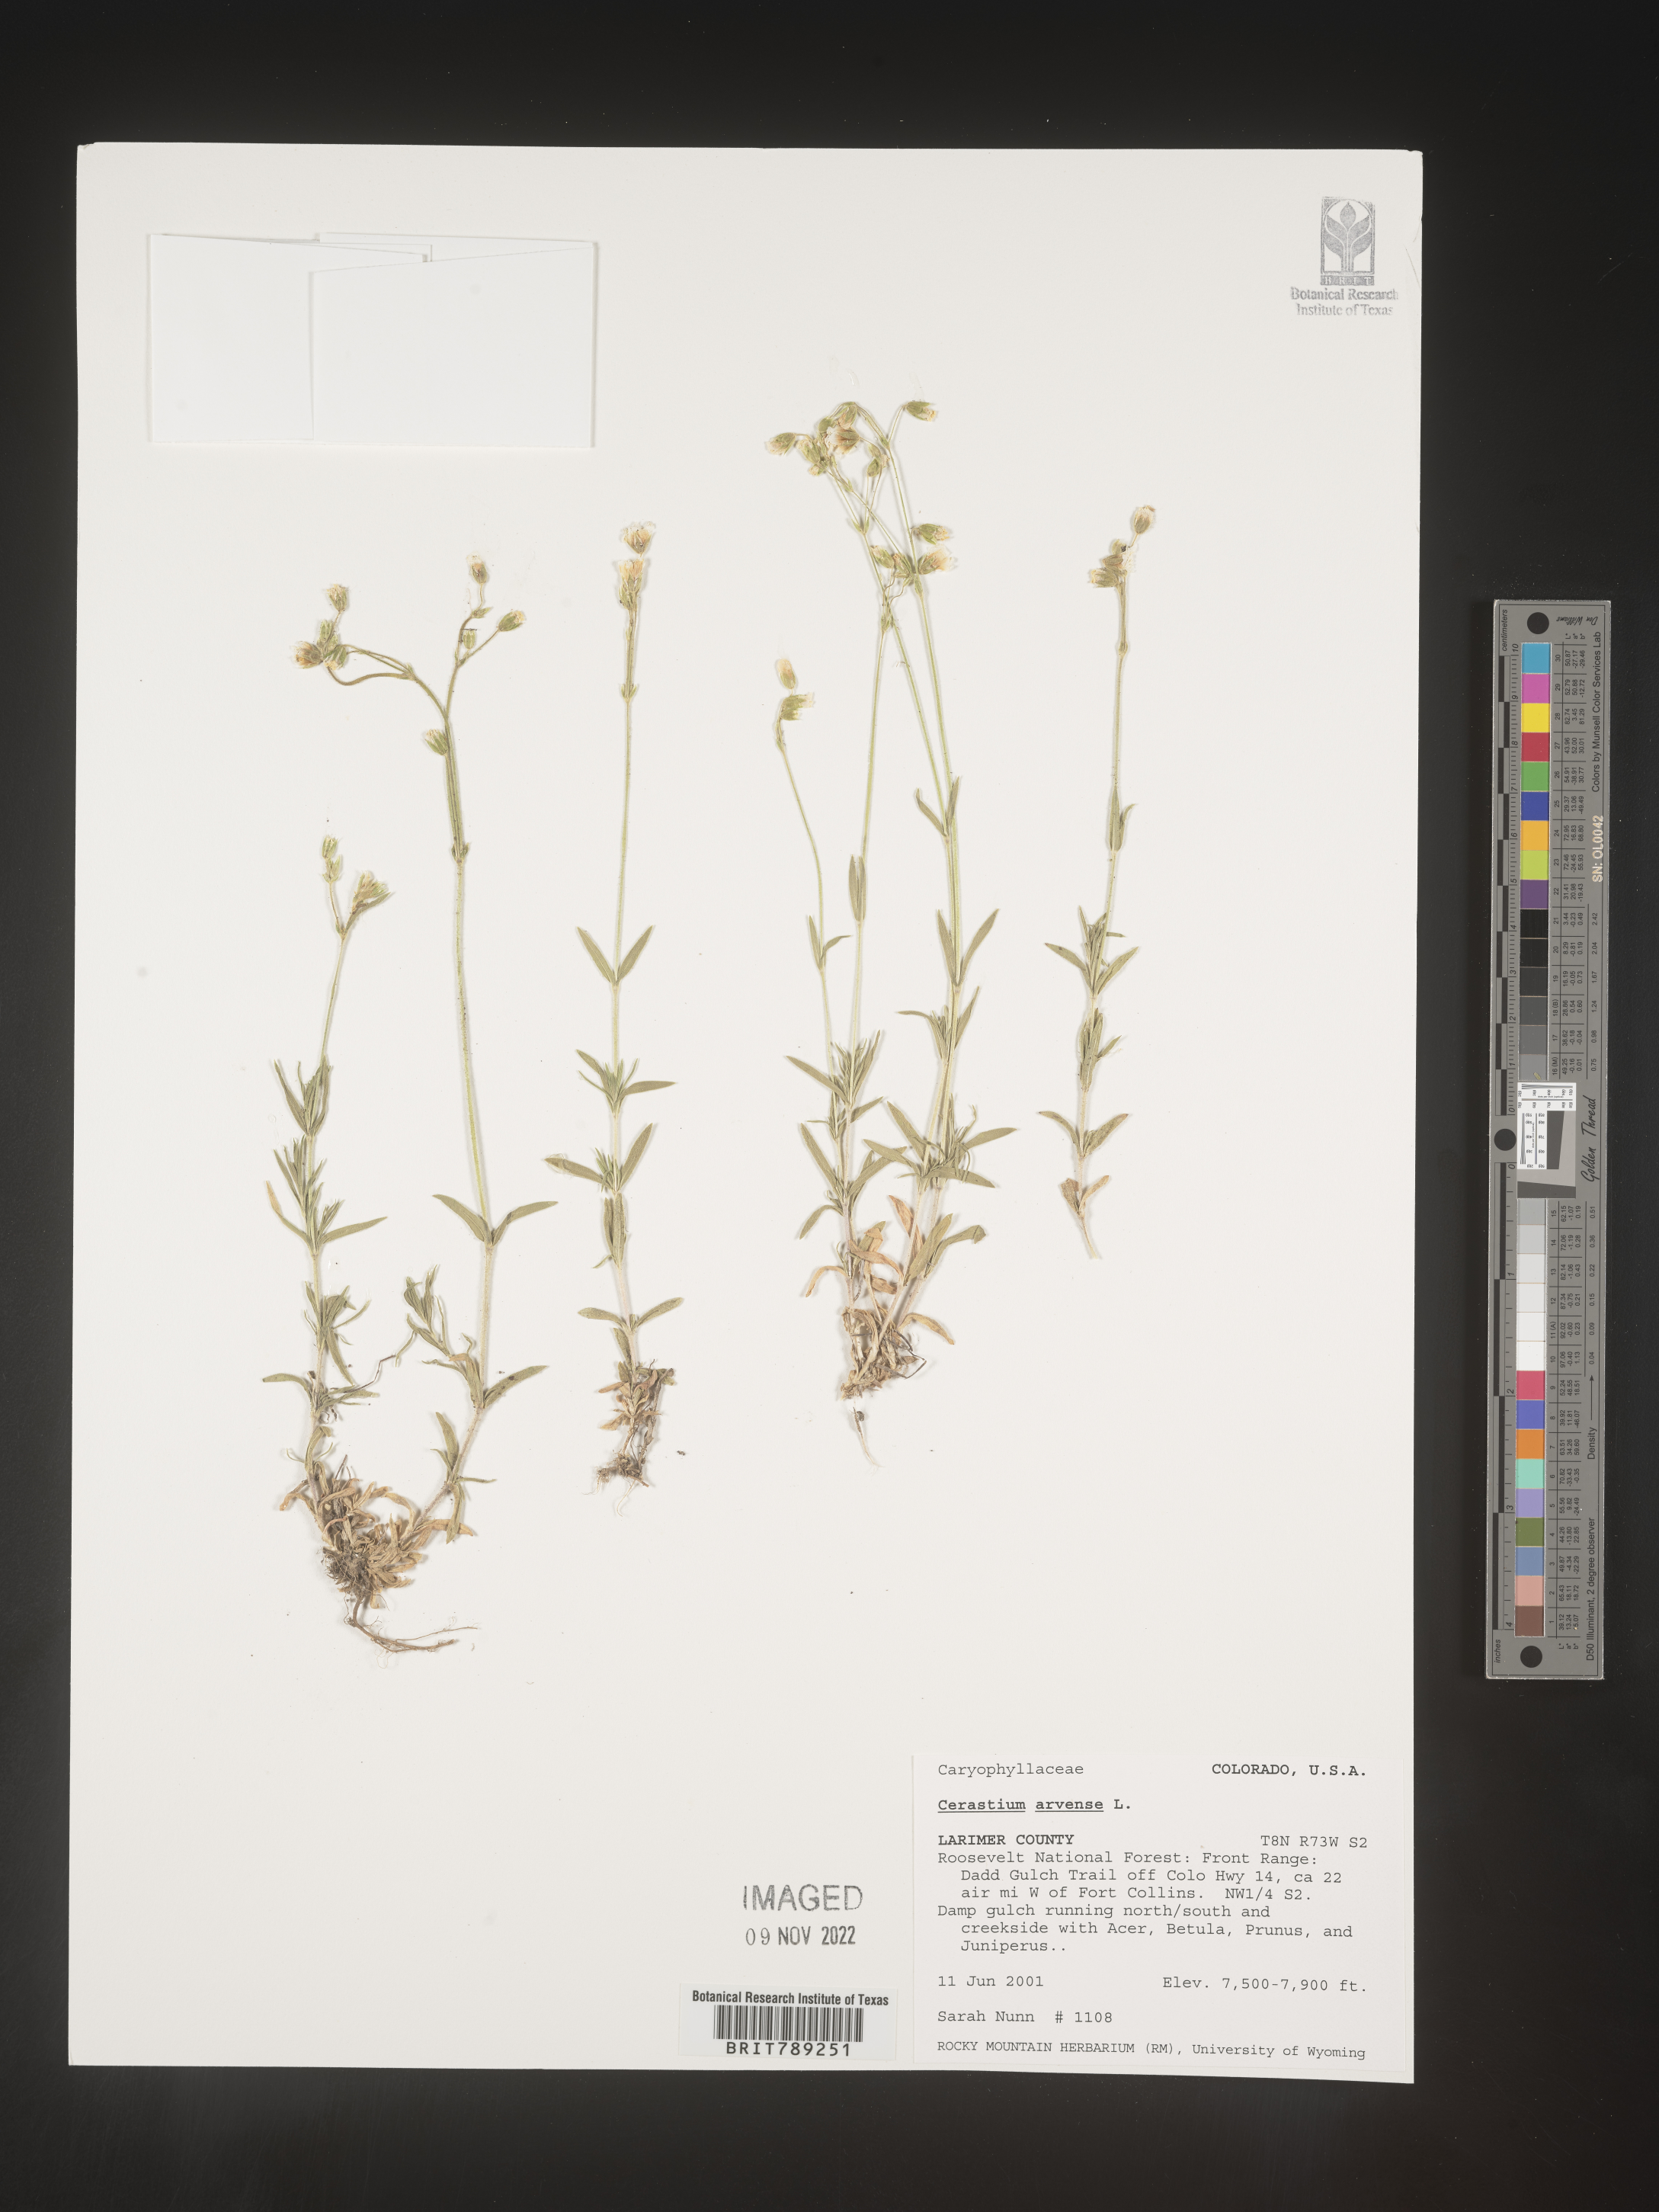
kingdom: Plantae
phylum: Tracheophyta
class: Magnoliopsida
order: Caryophyllales
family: Caryophyllaceae
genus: Cerastium
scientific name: Cerastium arvense
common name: Field mouse-ear
